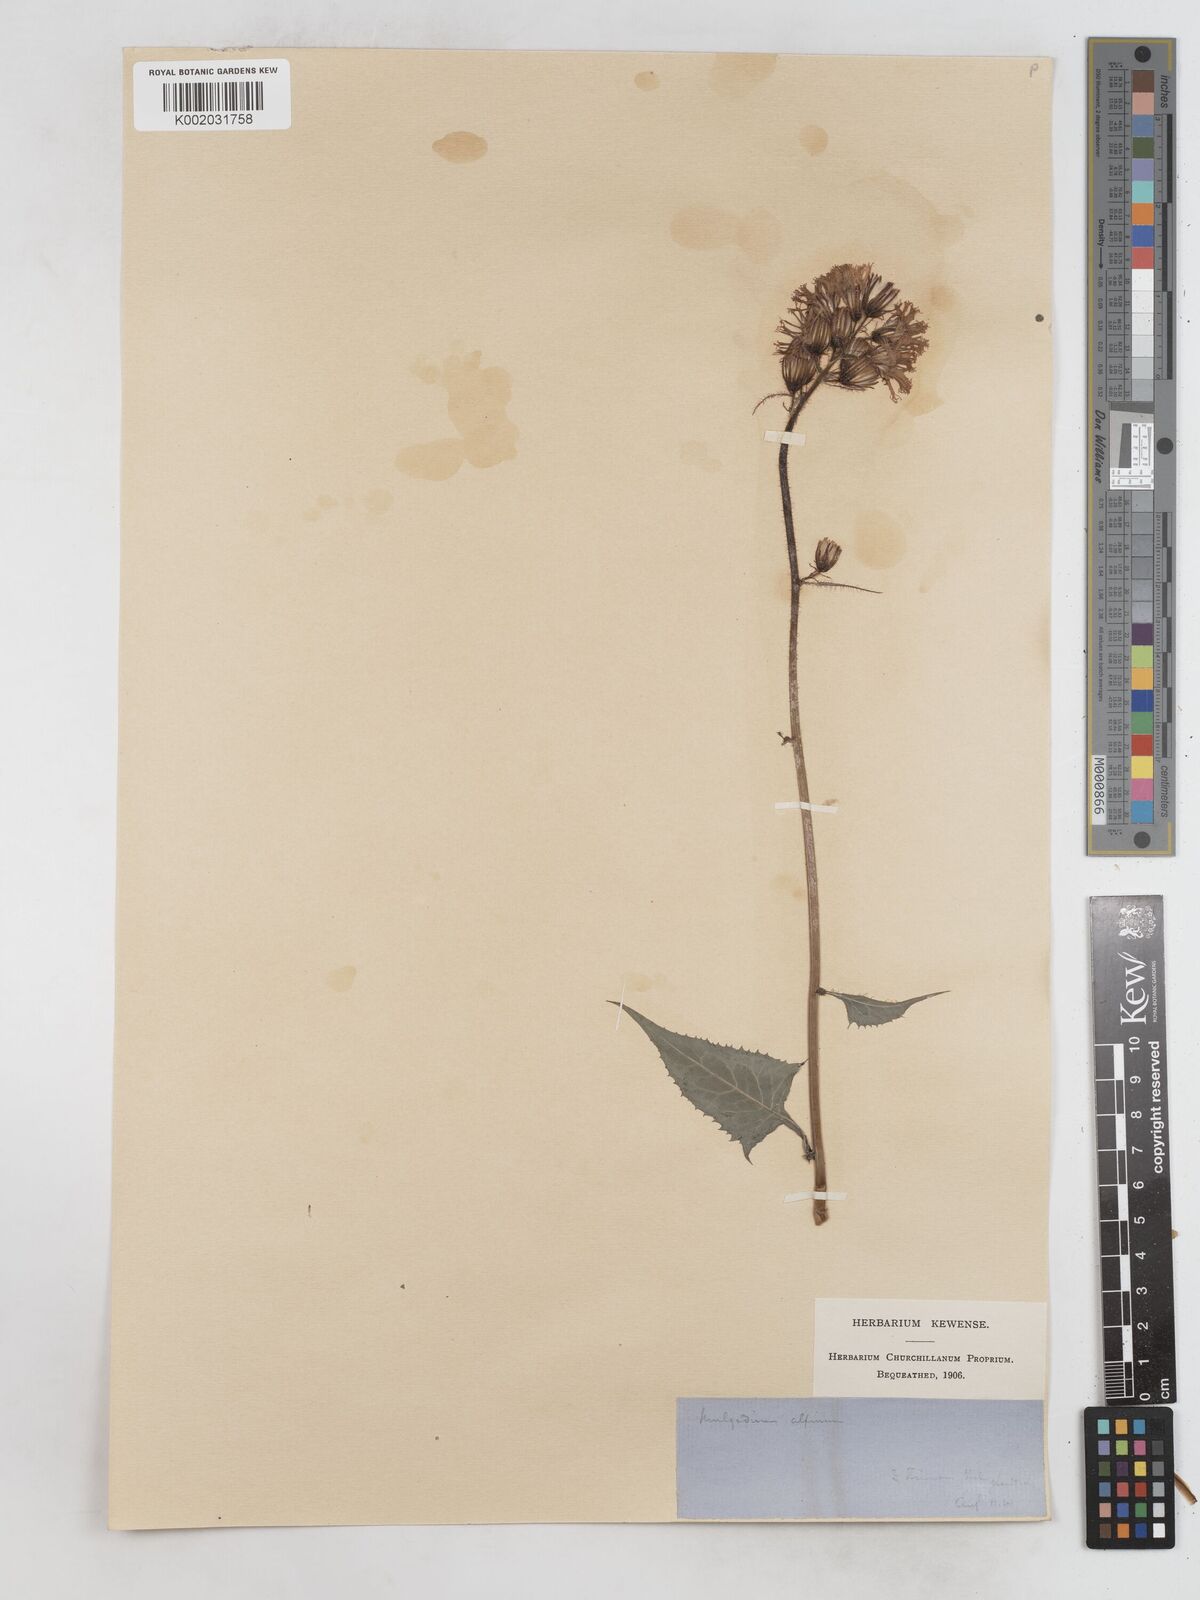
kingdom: Plantae
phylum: Tracheophyta
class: Magnoliopsida
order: Asterales
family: Asteraceae
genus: Cicerbita
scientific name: Cicerbita alpina
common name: Alpine blue-sow-thistle
